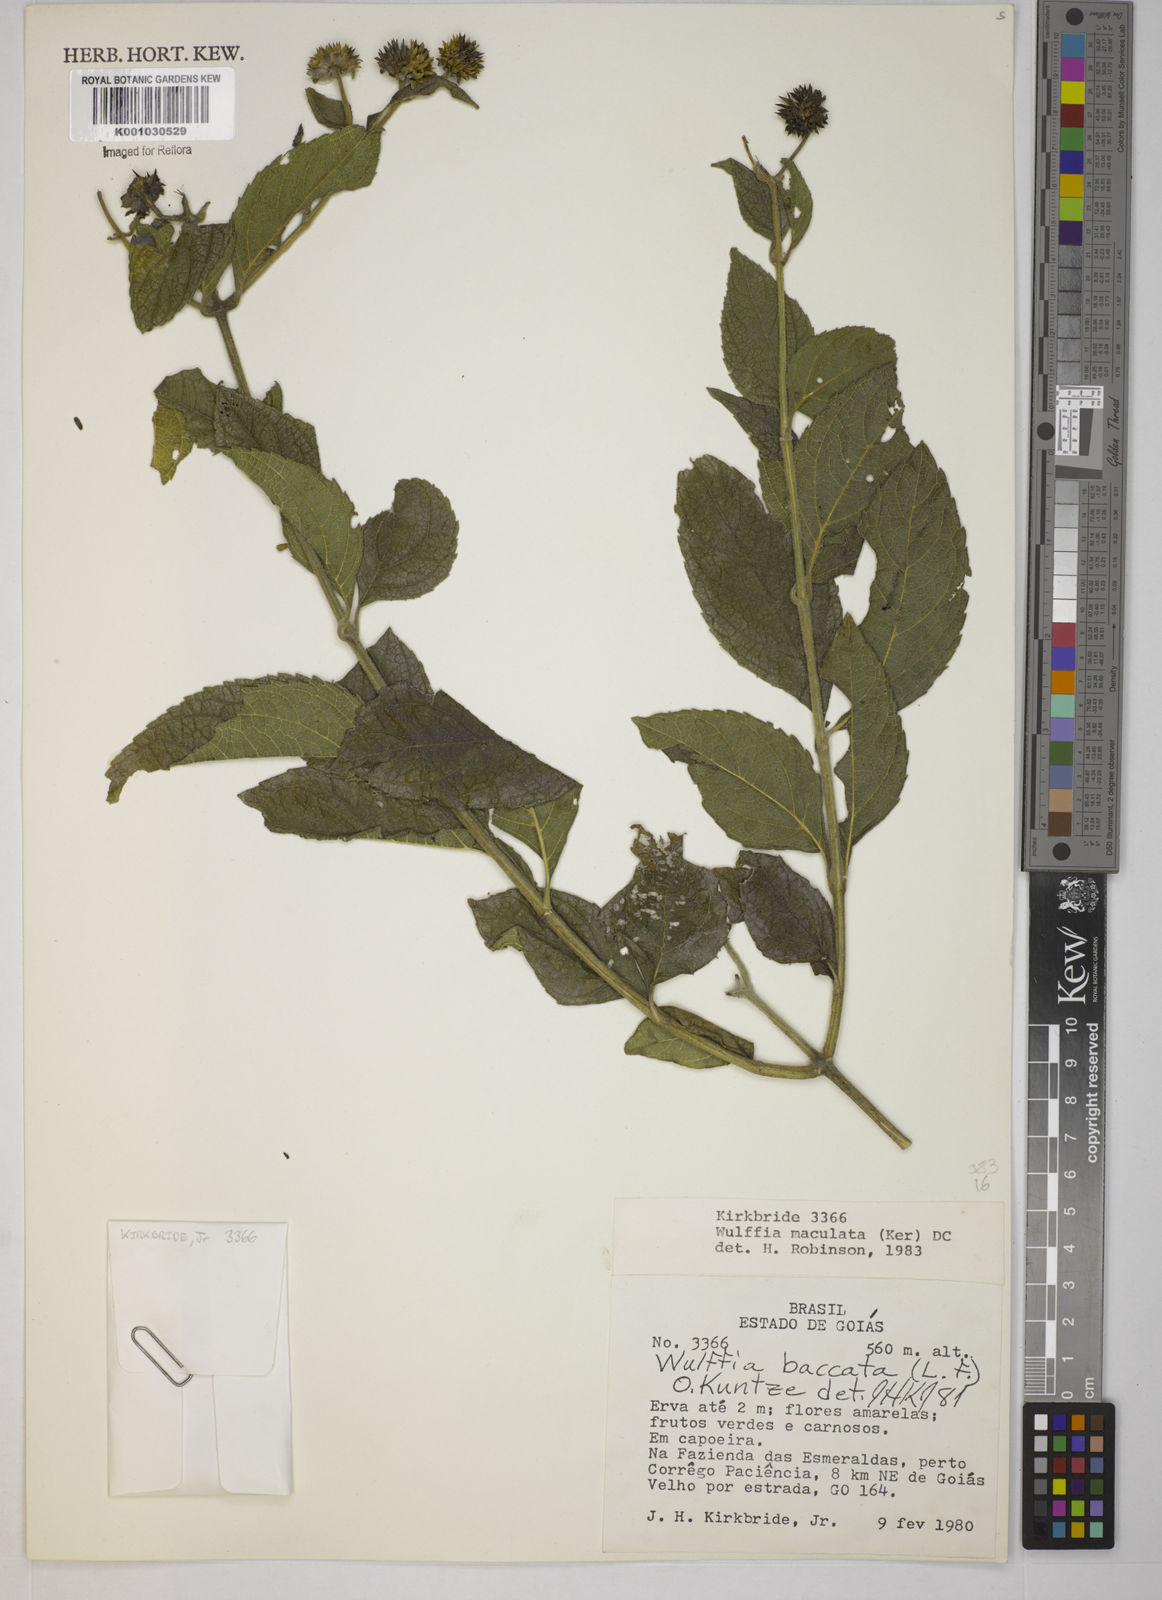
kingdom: Plantae
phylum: Tracheophyta
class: Magnoliopsida
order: Asterales
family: Asteraceae
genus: Tilesia
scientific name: Tilesia baccata
